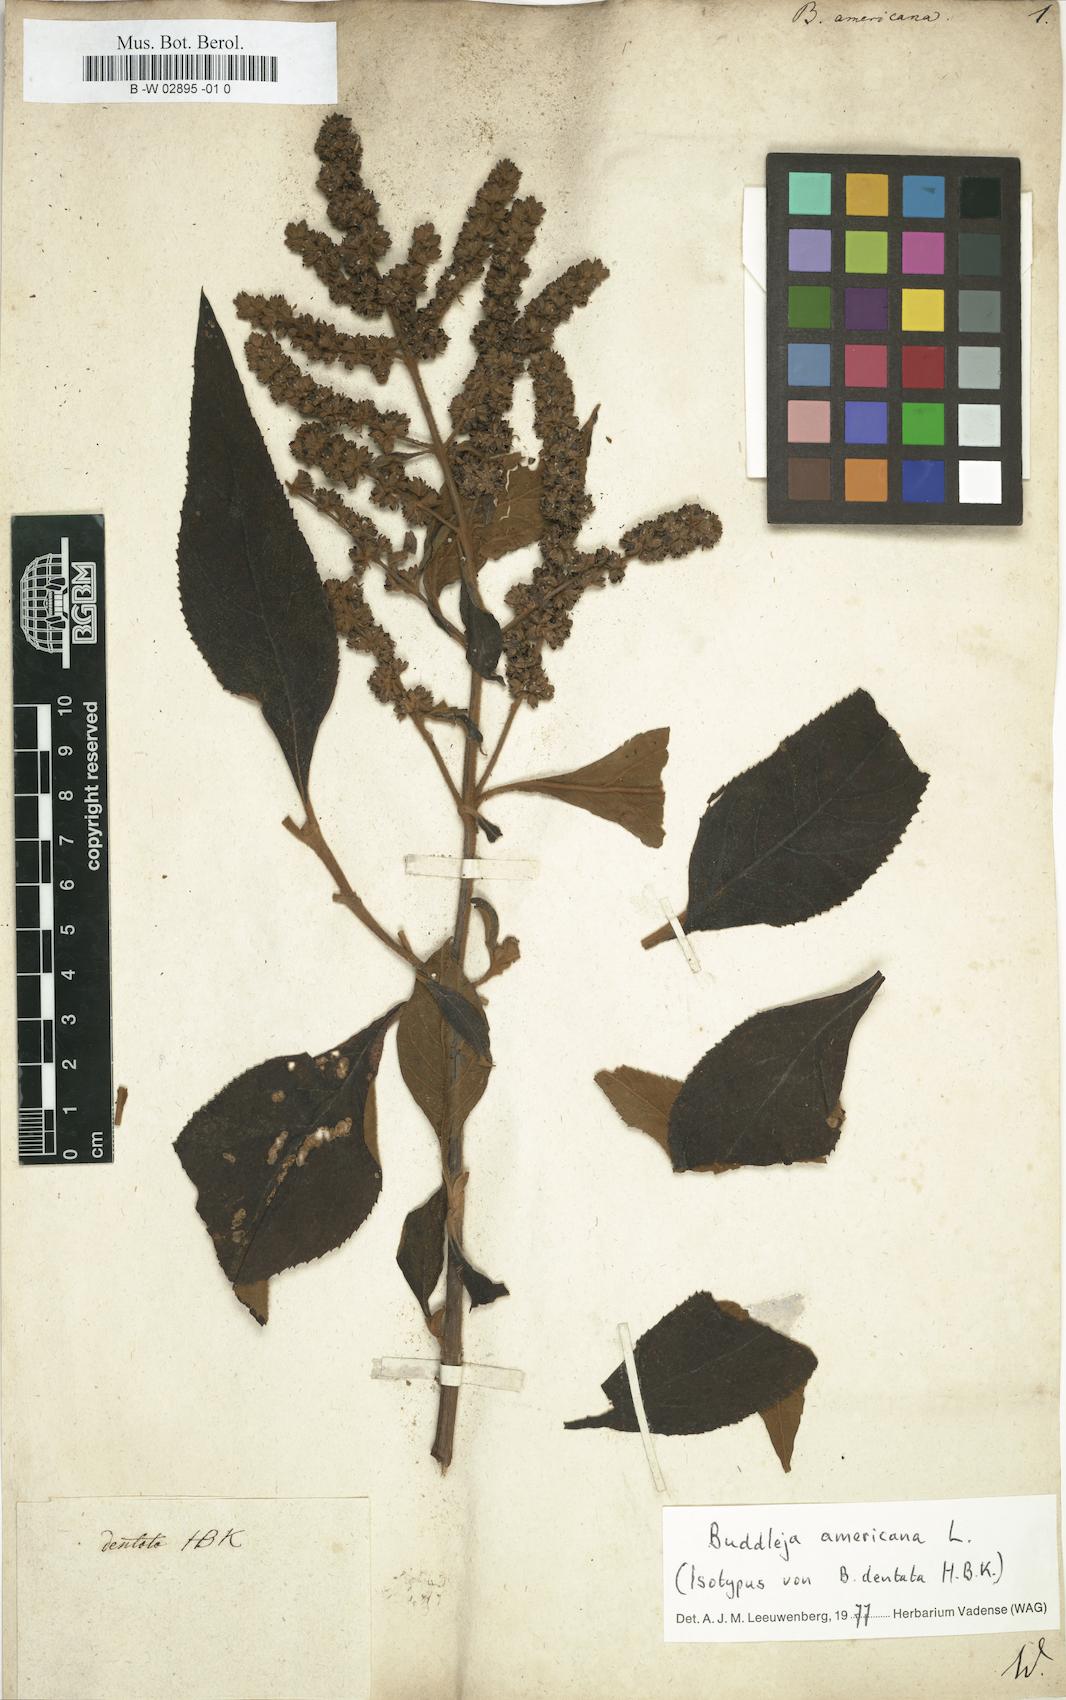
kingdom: Plantae
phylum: Tracheophyta
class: Magnoliopsida
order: Lamiales
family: Scrophulariaceae
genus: Buddleja
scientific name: Buddleja americana
